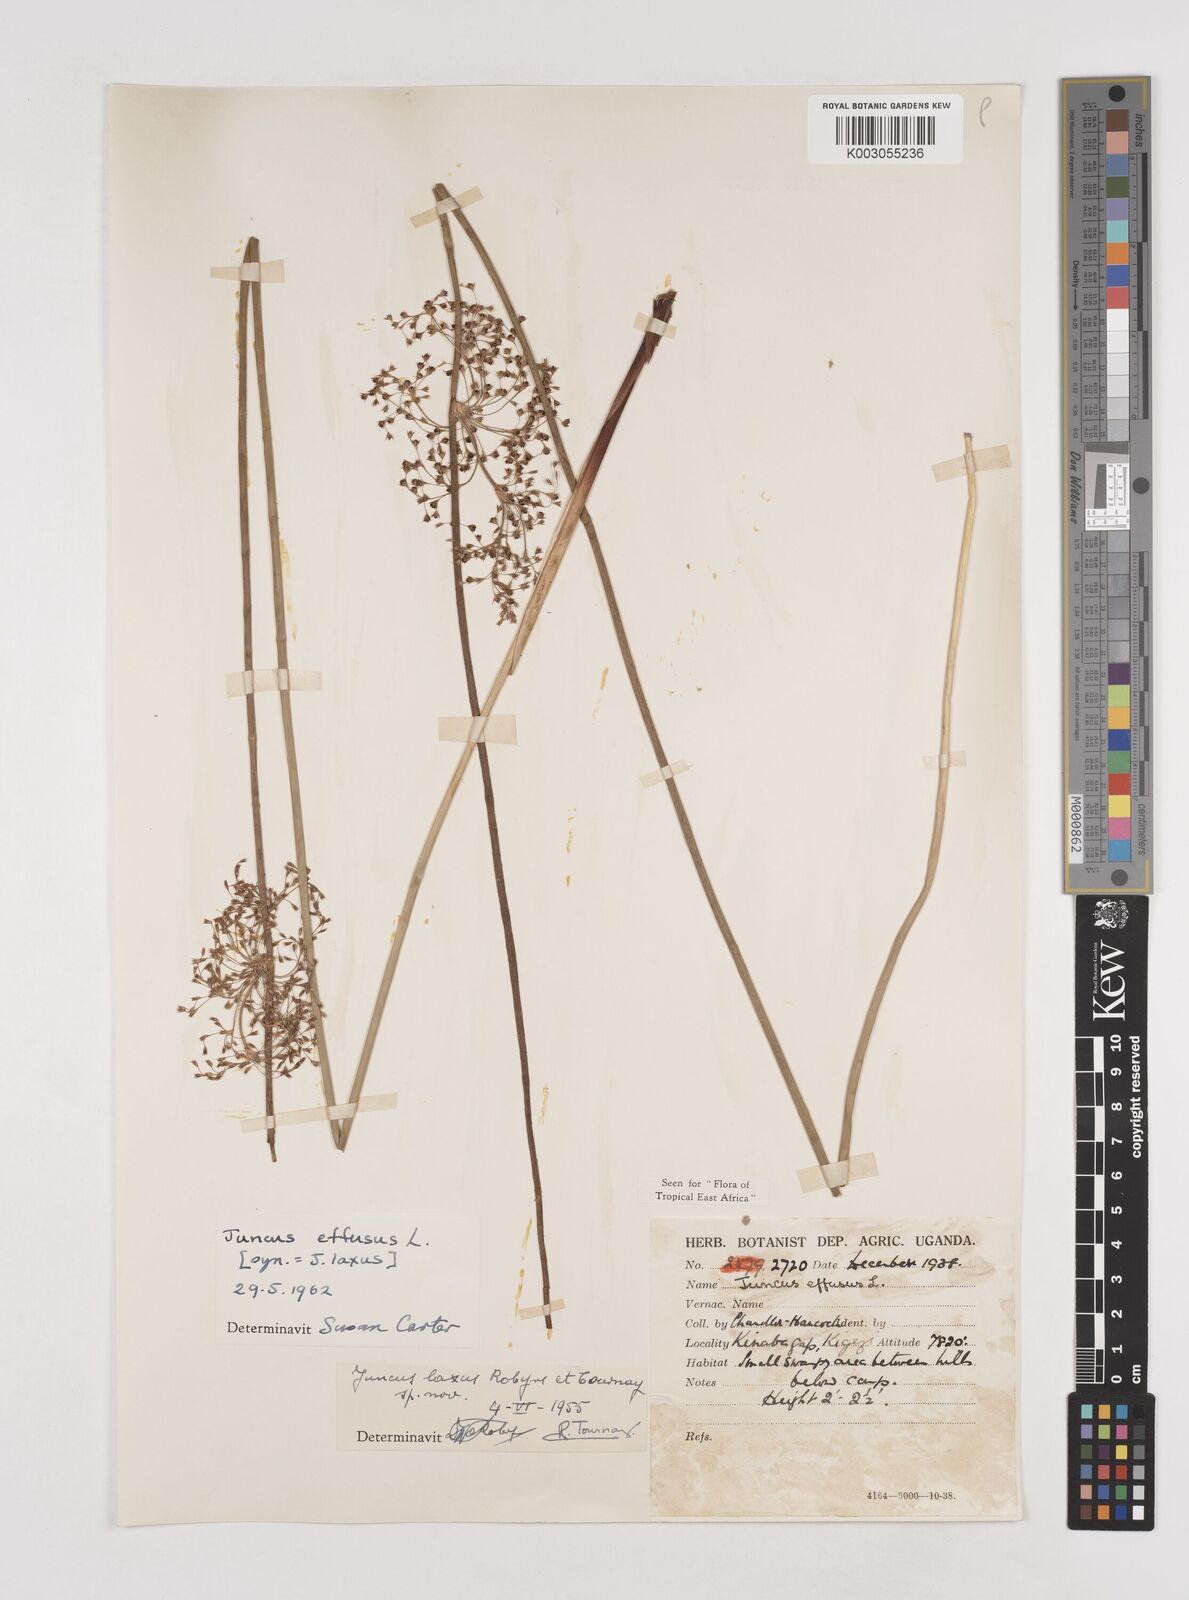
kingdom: Plantae
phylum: Tracheophyta
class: Liliopsida
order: Poales
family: Juncaceae
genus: Juncus
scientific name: Juncus effusus
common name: Soft rush
